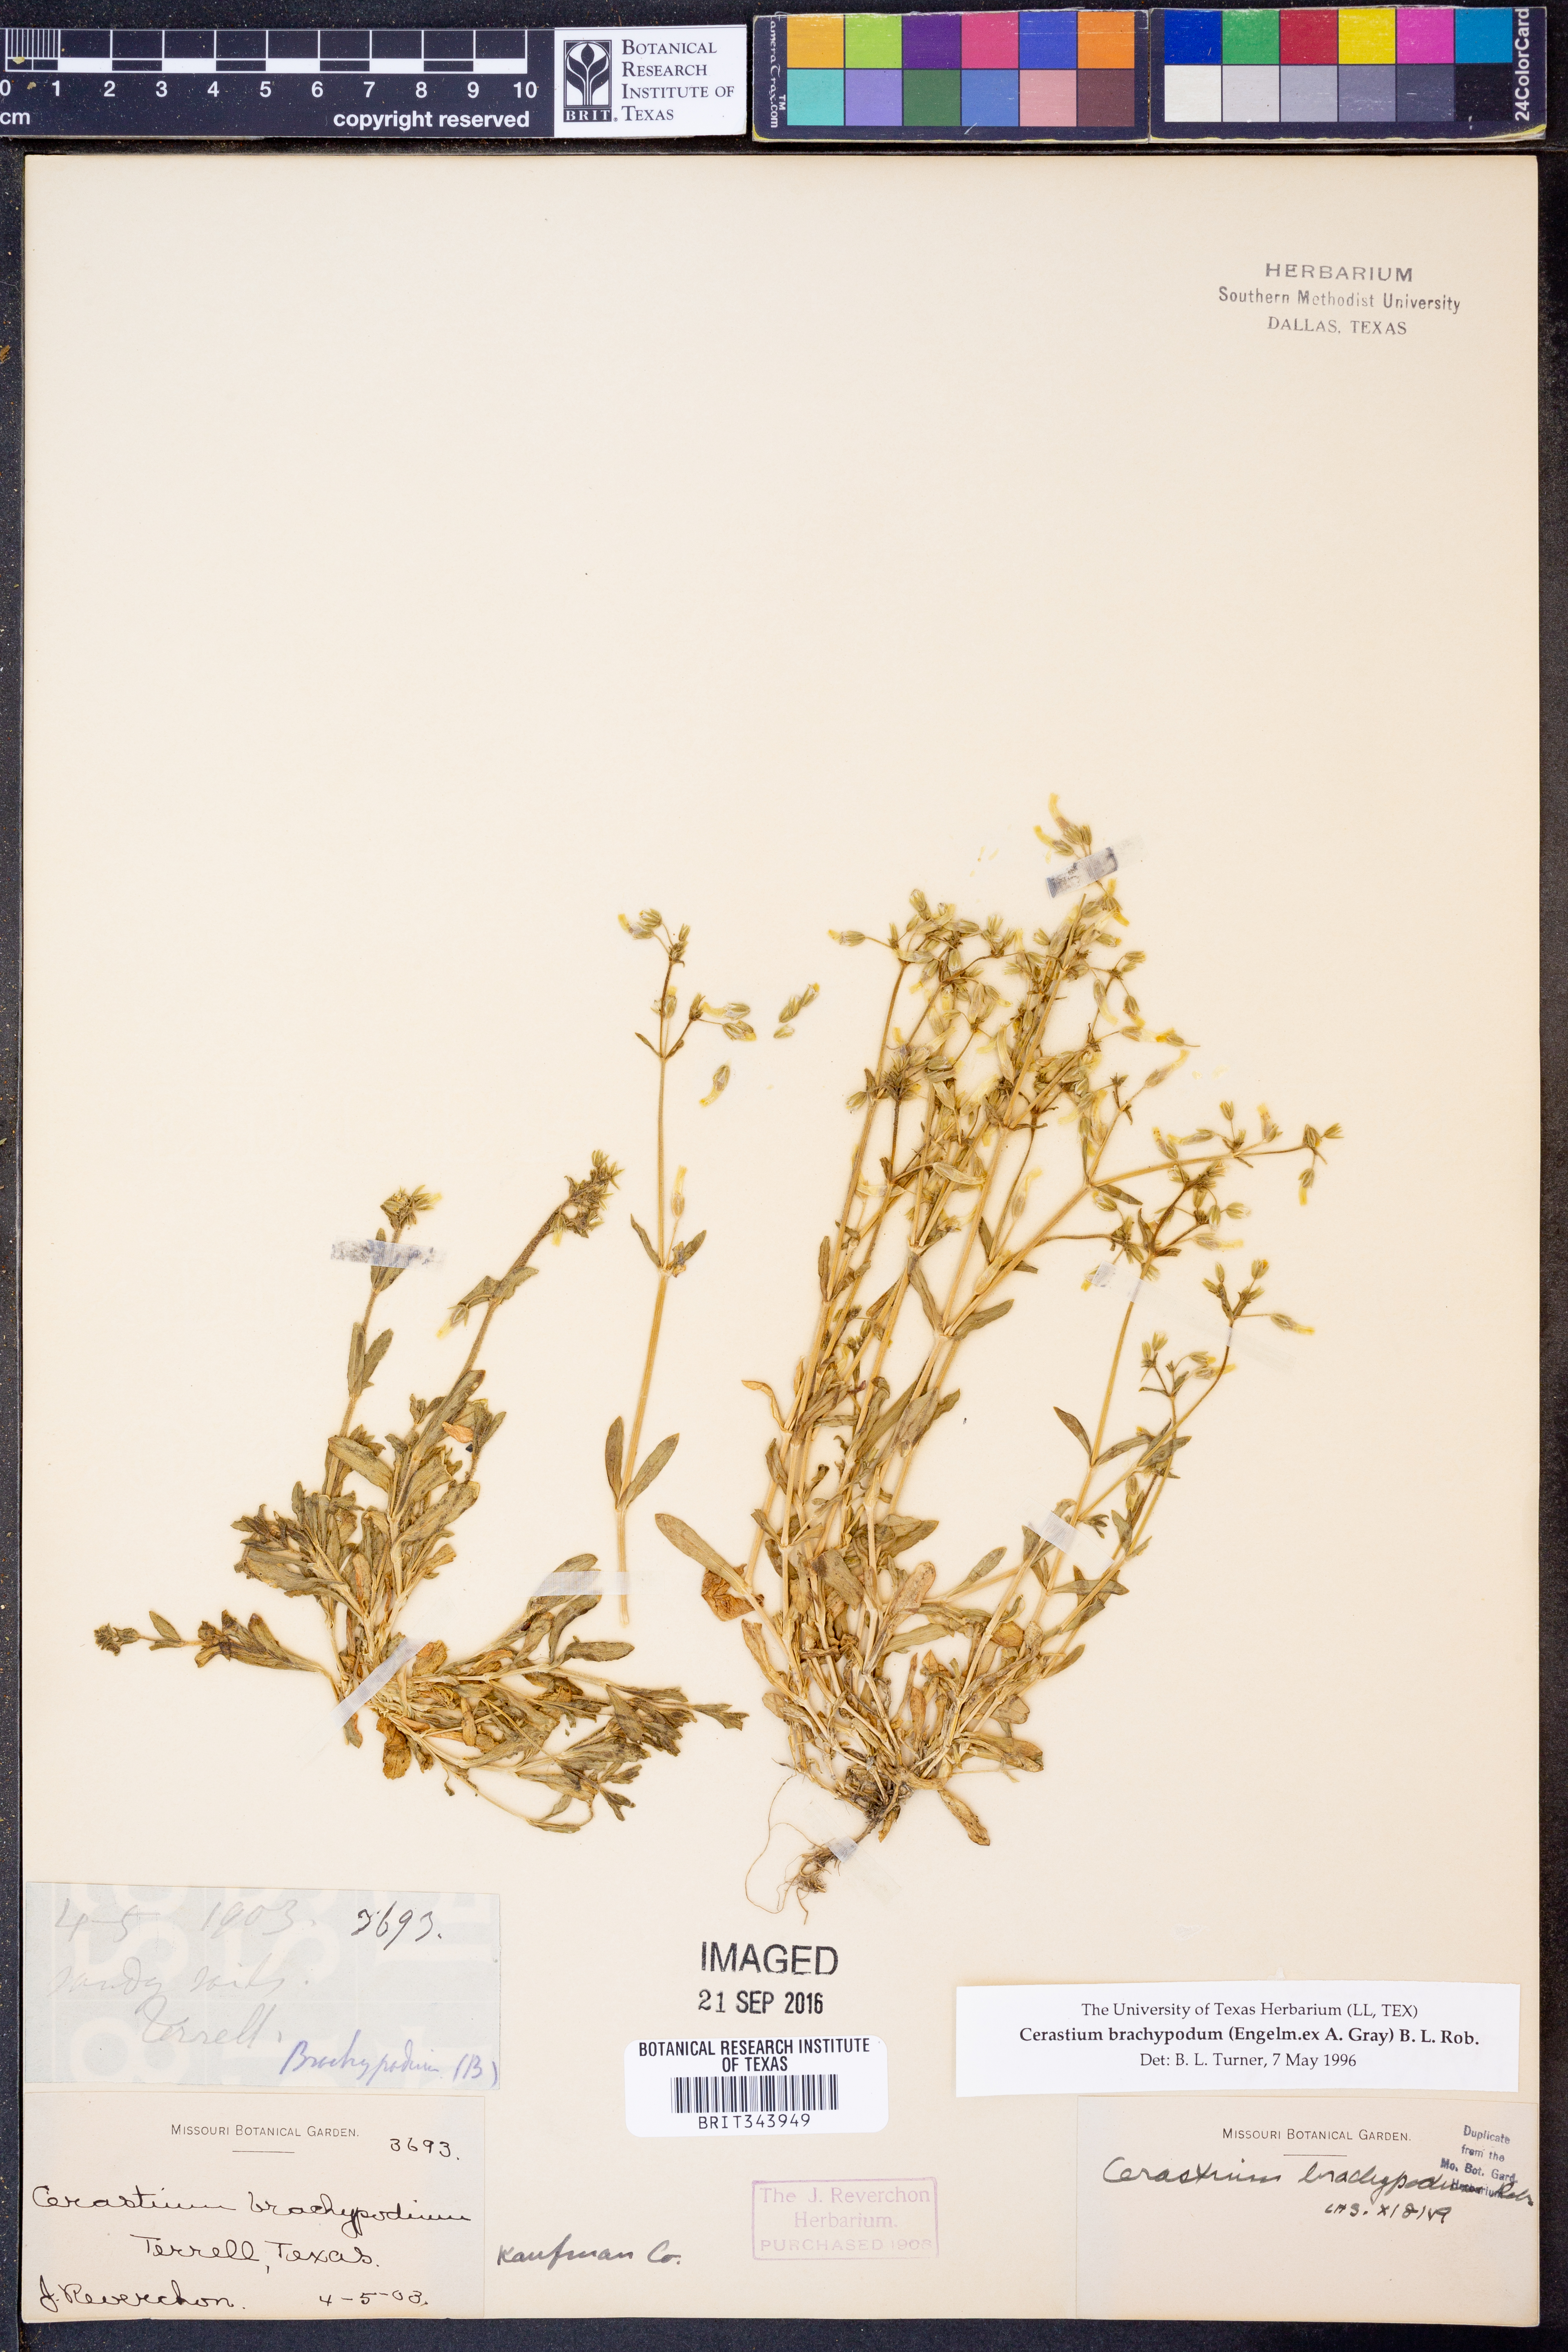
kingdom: Plantae
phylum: Tracheophyta
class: Magnoliopsida
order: Caryophyllales
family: Caryophyllaceae
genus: Cerastium
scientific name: Cerastium brachypodum
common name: Short-pedicelled nodding chickweed
